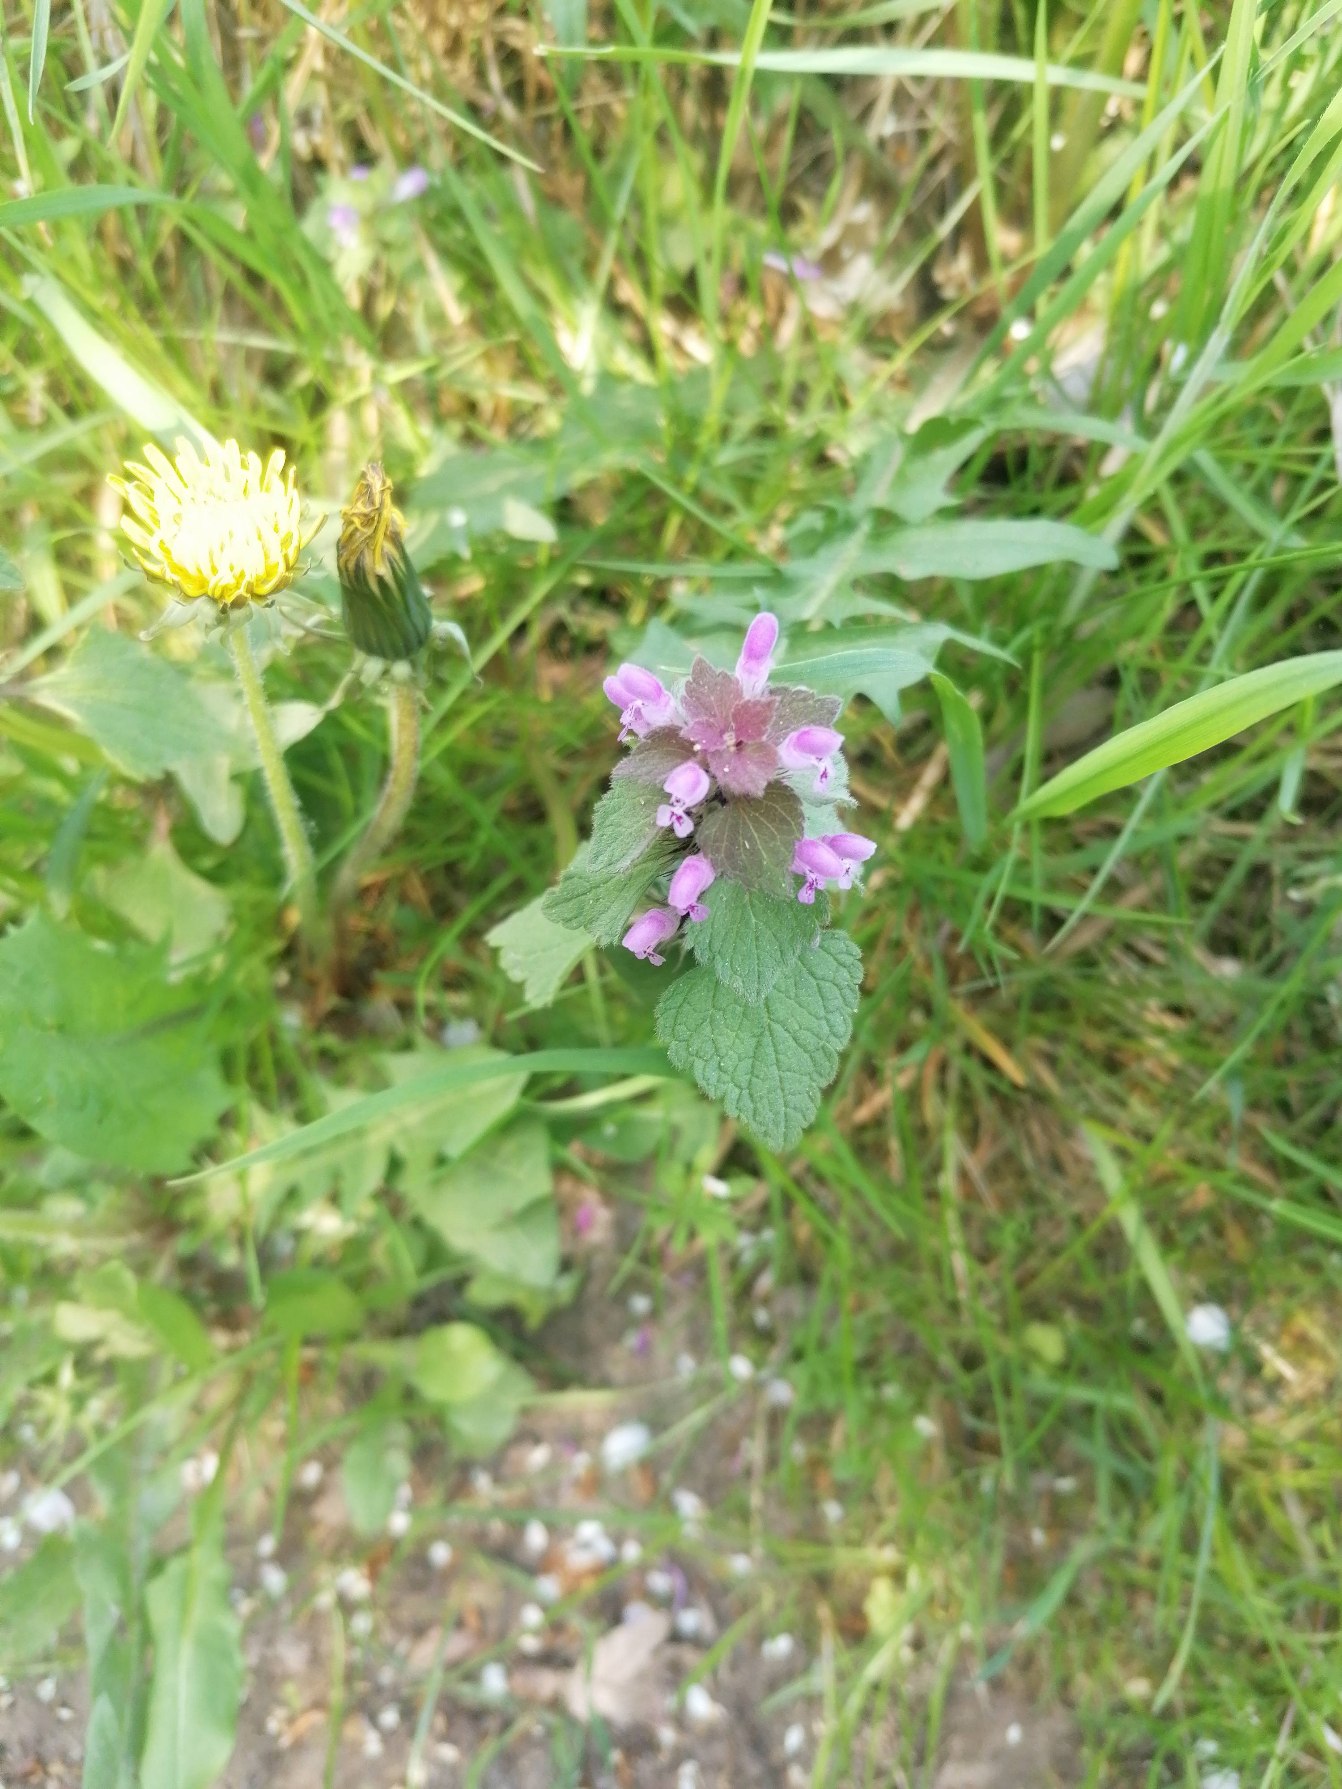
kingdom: Plantae
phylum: Tracheophyta
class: Magnoliopsida
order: Lamiales
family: Lamiaceae
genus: Lamium
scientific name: Lamium purpureum
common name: Rød tvetand
